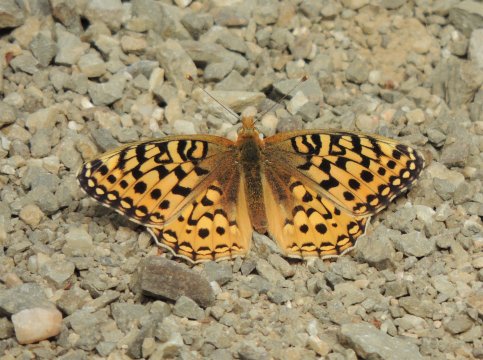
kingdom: Animalia
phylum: Arthropoda
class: Insecta
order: Lepidoptera
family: Nymphalidae
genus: Speyeria
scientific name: Speyeria coronis
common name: Coronis Fritillary
